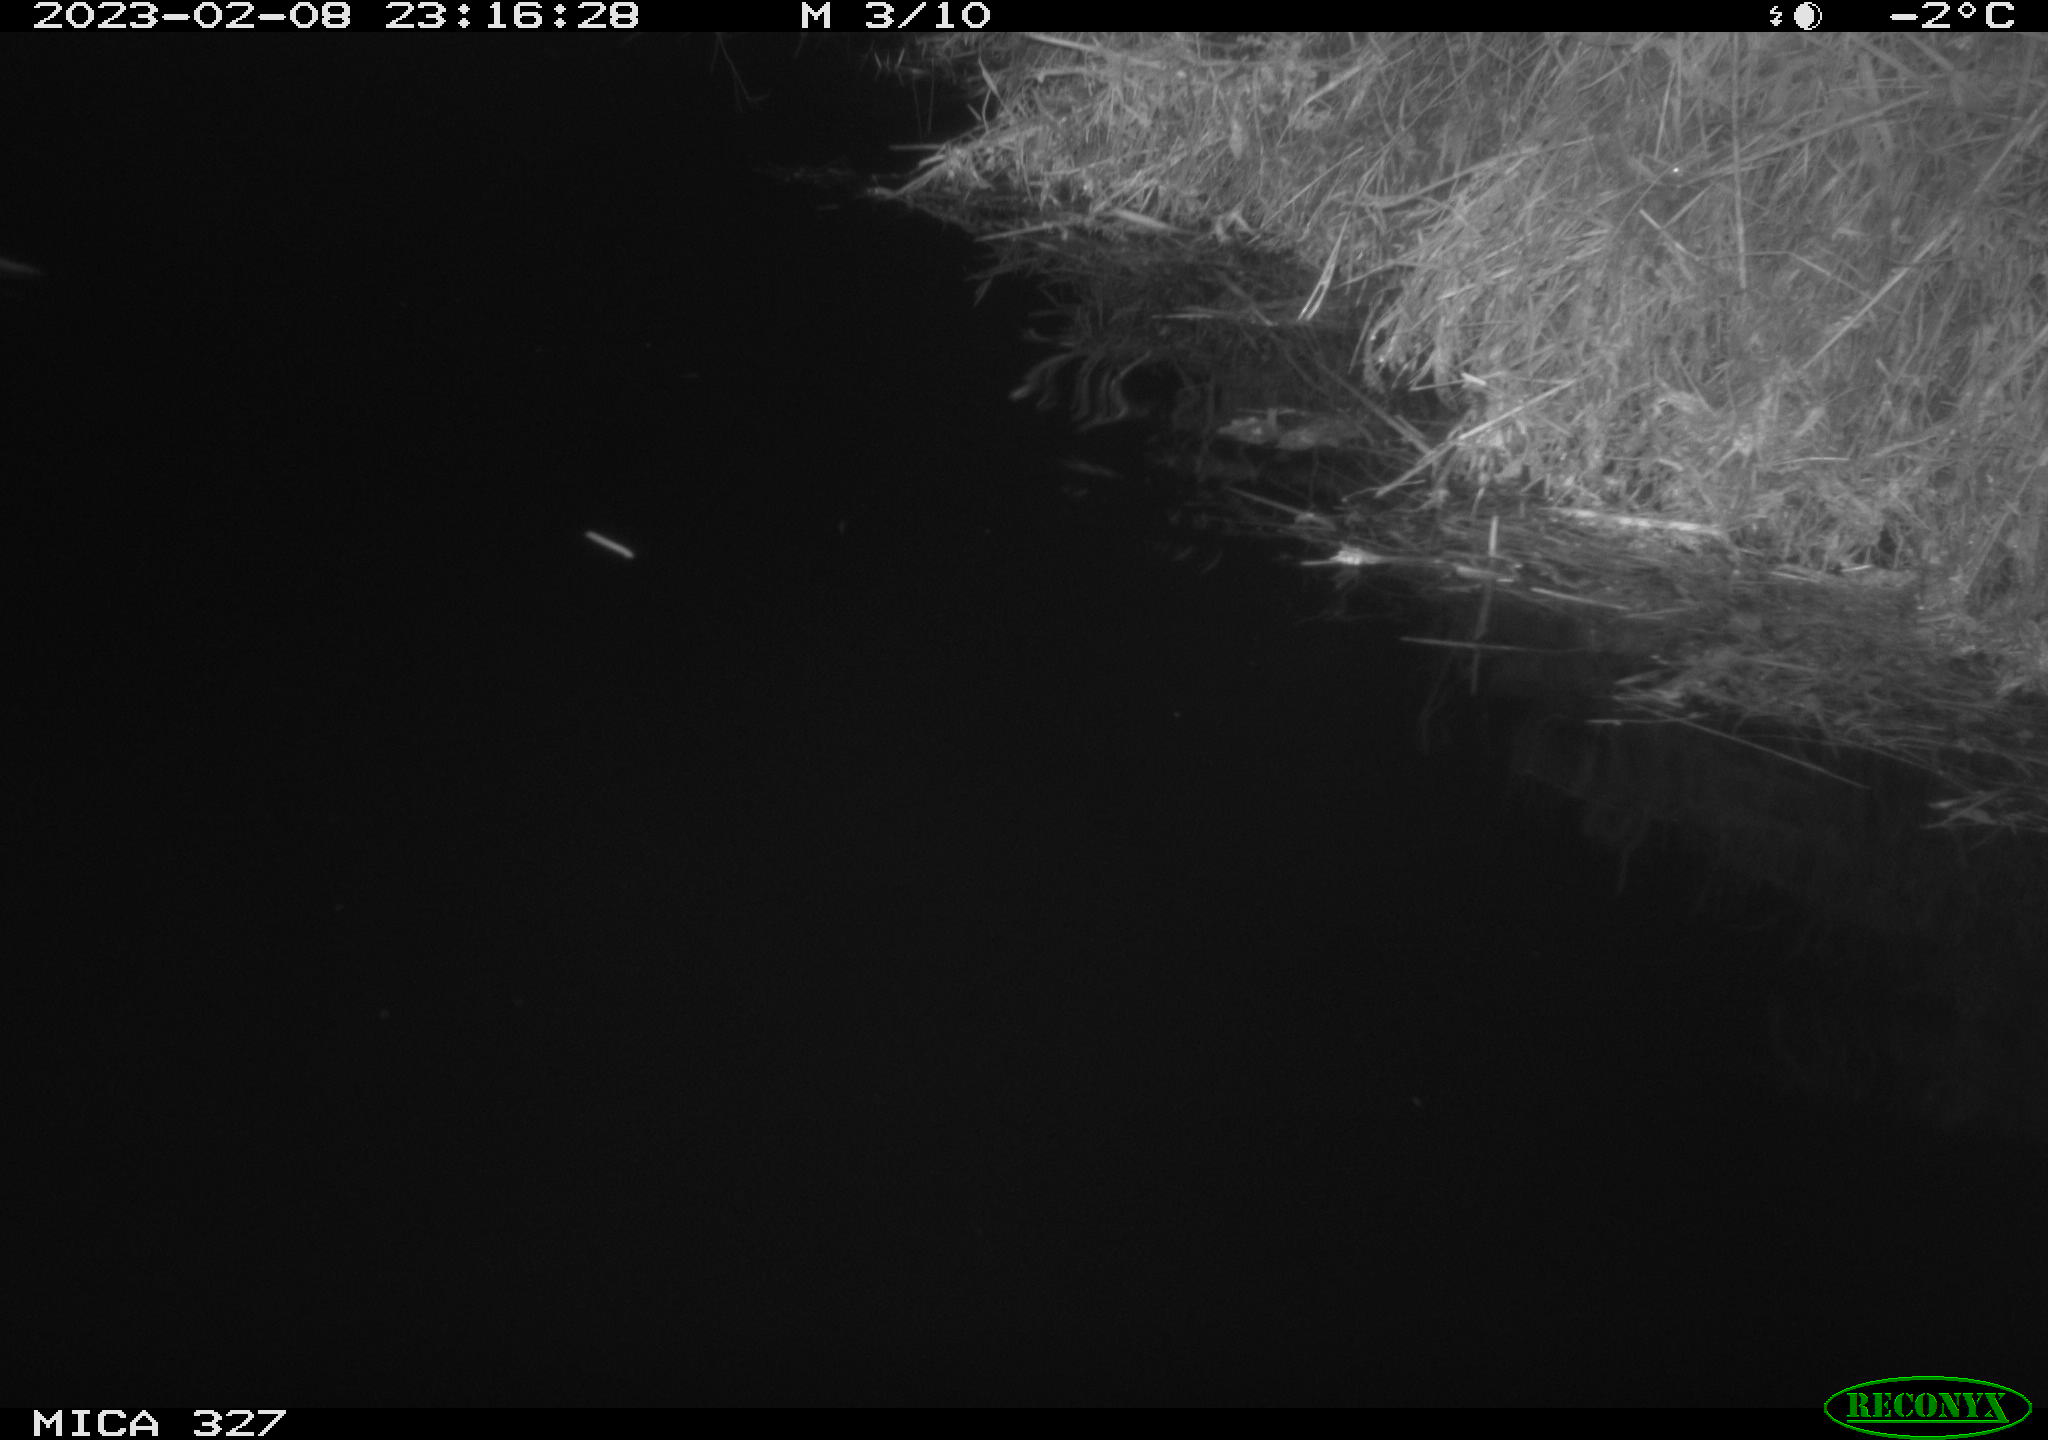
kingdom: Animalia
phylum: Chordata
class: Mammalia
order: Rodentia
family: Cricetidae
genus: Ondatra
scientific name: Ondatra zibethicus
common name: Muskrat
